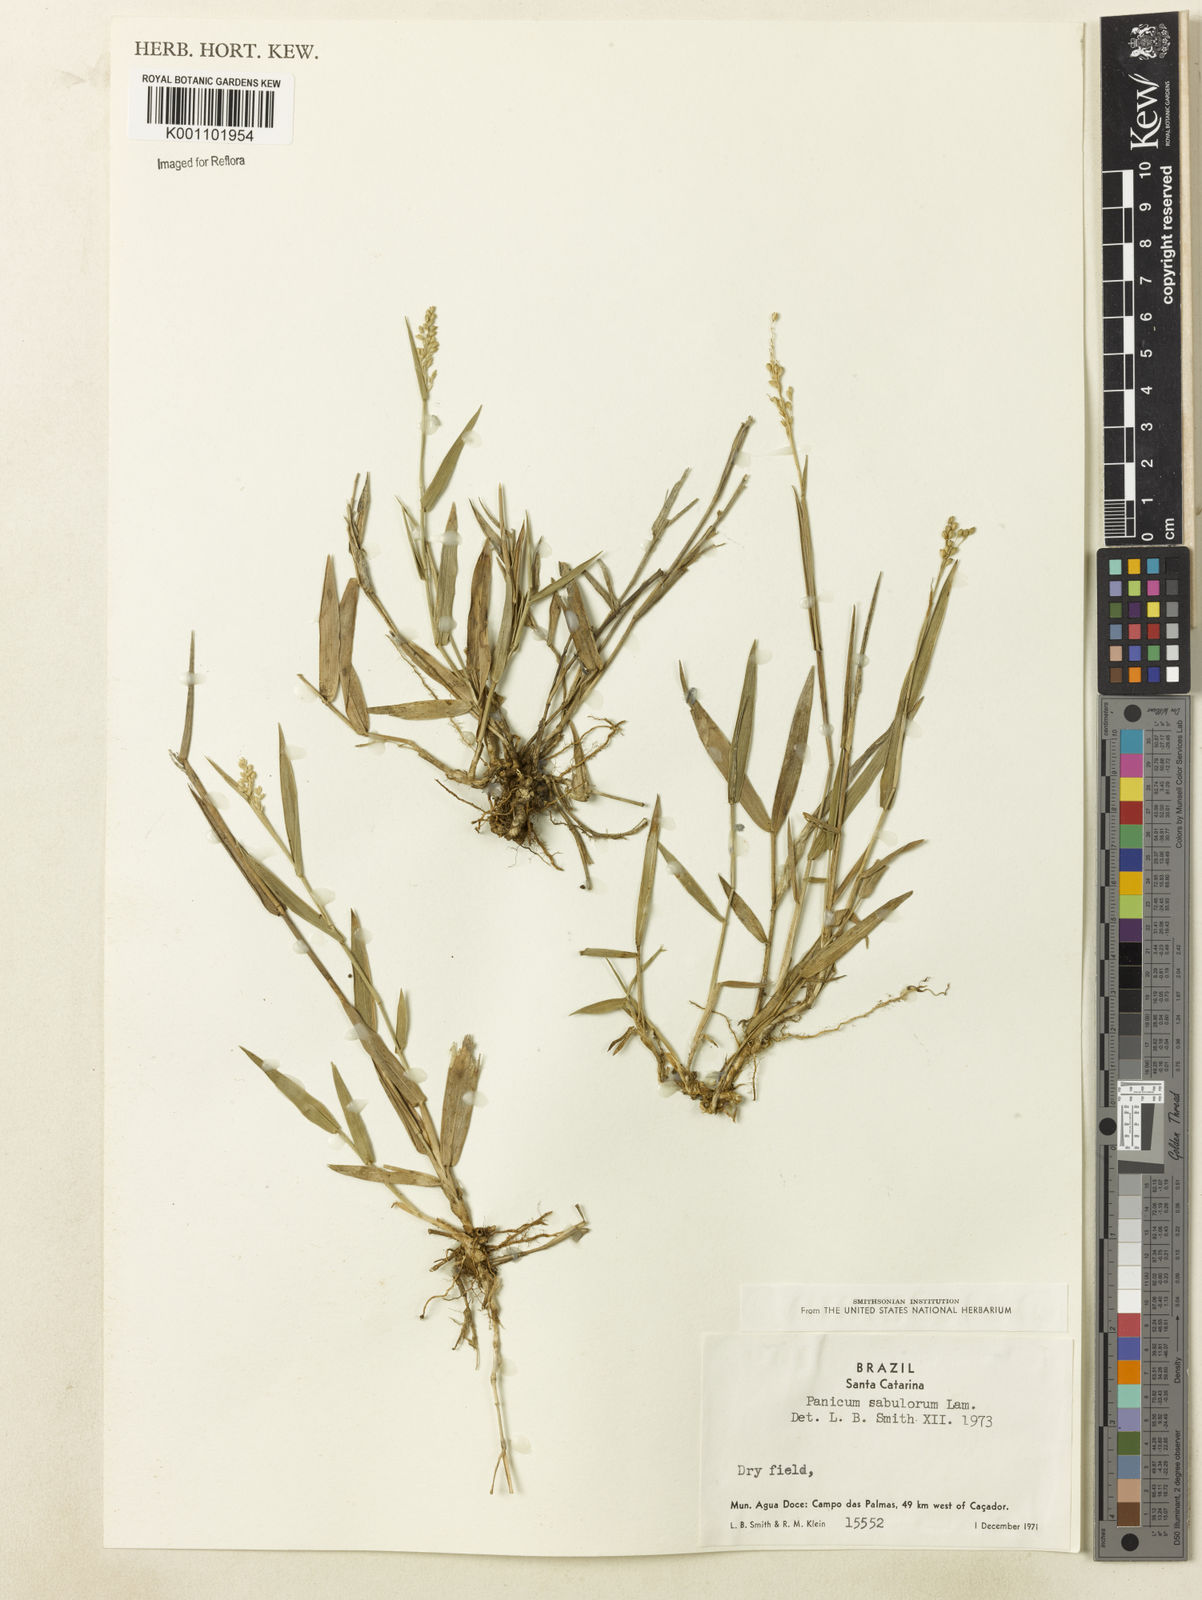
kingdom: Plantae
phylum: Tracheophyta
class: Liliopsida
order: Poales
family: Poaceae
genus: Dichanthelium
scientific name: Dichanthelium sabulorum
